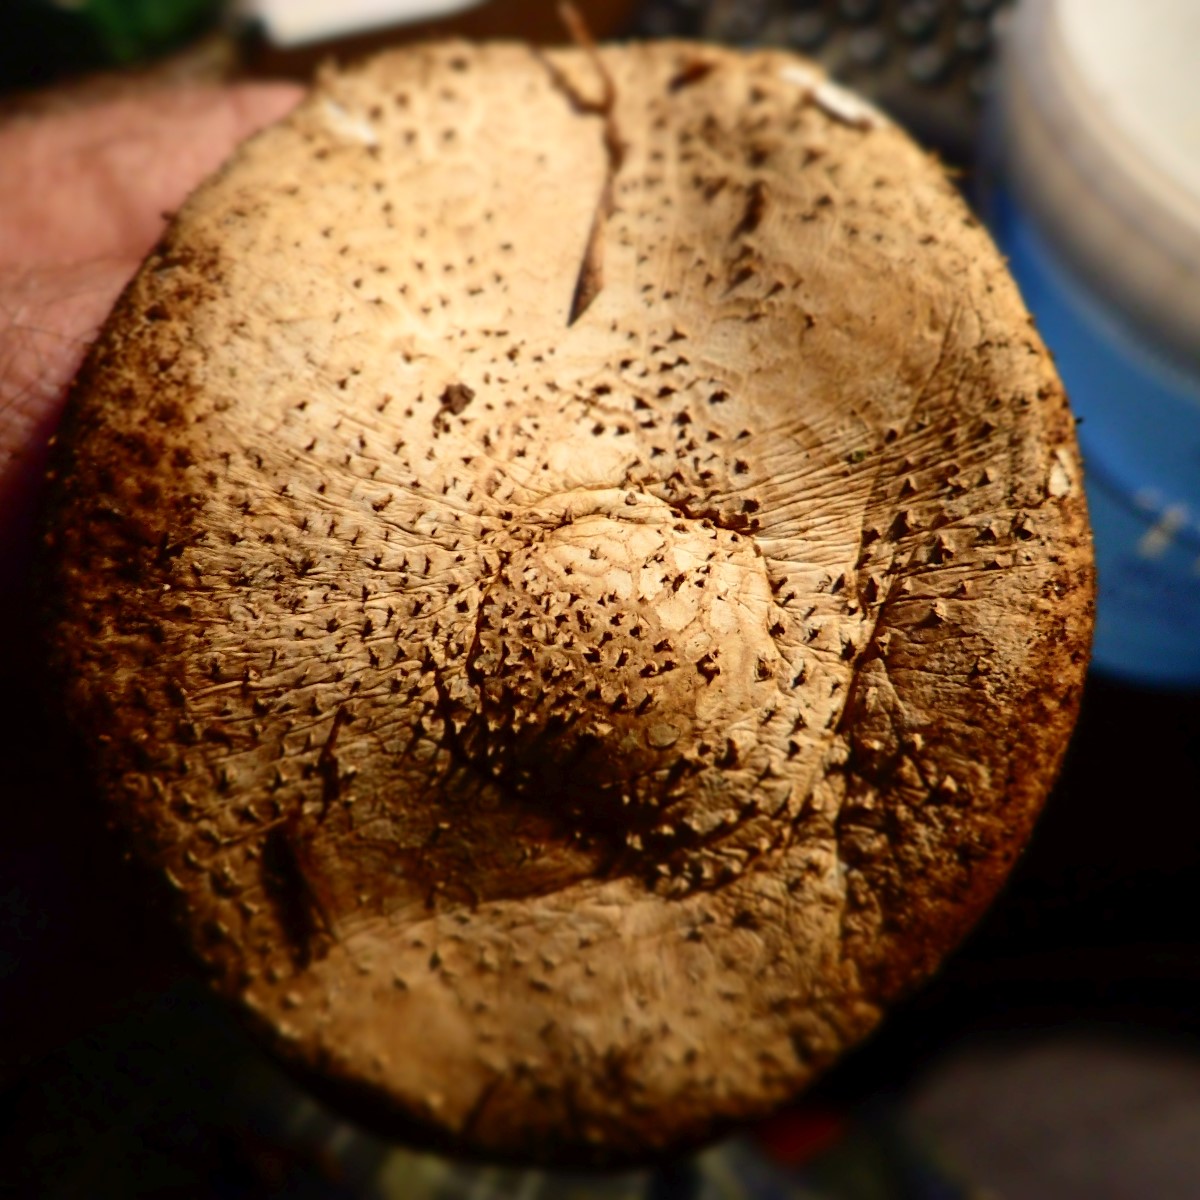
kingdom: Fungi
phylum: Basidiomycota
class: Agaricomycetes
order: Agaricales
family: Agaricaceae
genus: Echinoderma
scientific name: Echinoderma asperum
